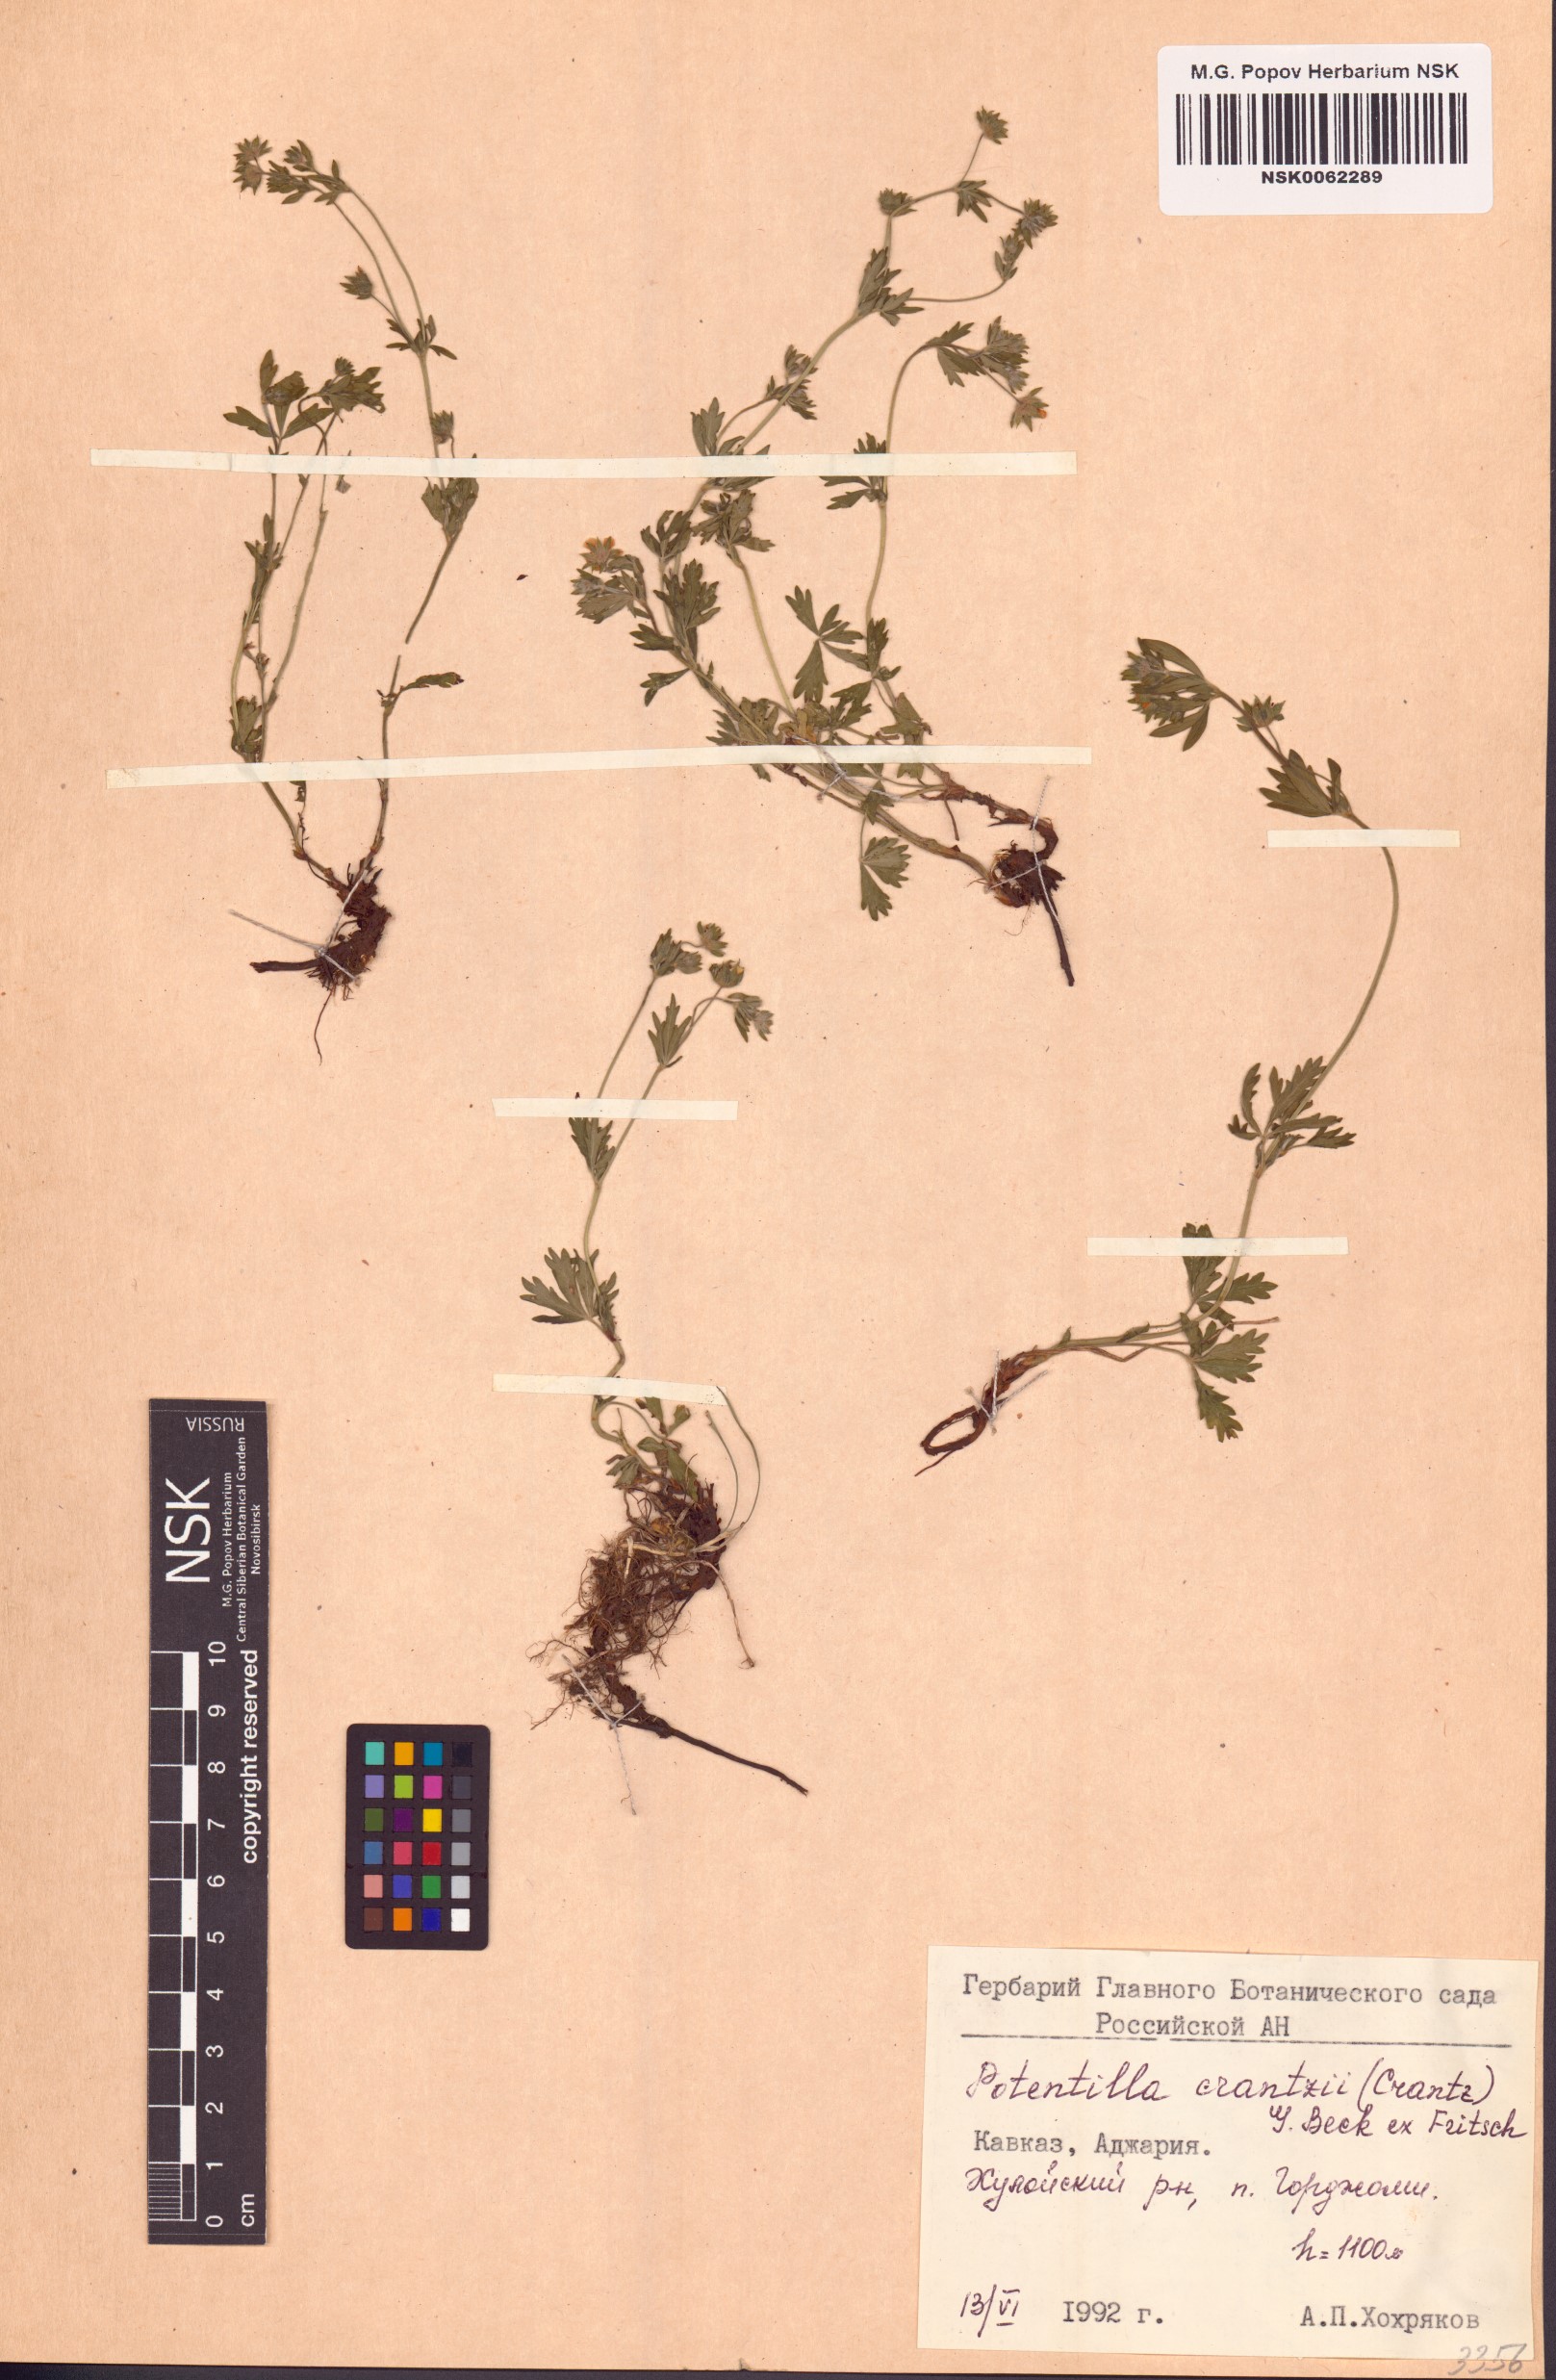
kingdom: Plantae
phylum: Tracheophyta
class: Magnoliopsida
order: Rosales
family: Rosaceae
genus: Potentilla
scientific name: Potentilla crantzii
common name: Alpine cinquefoil
